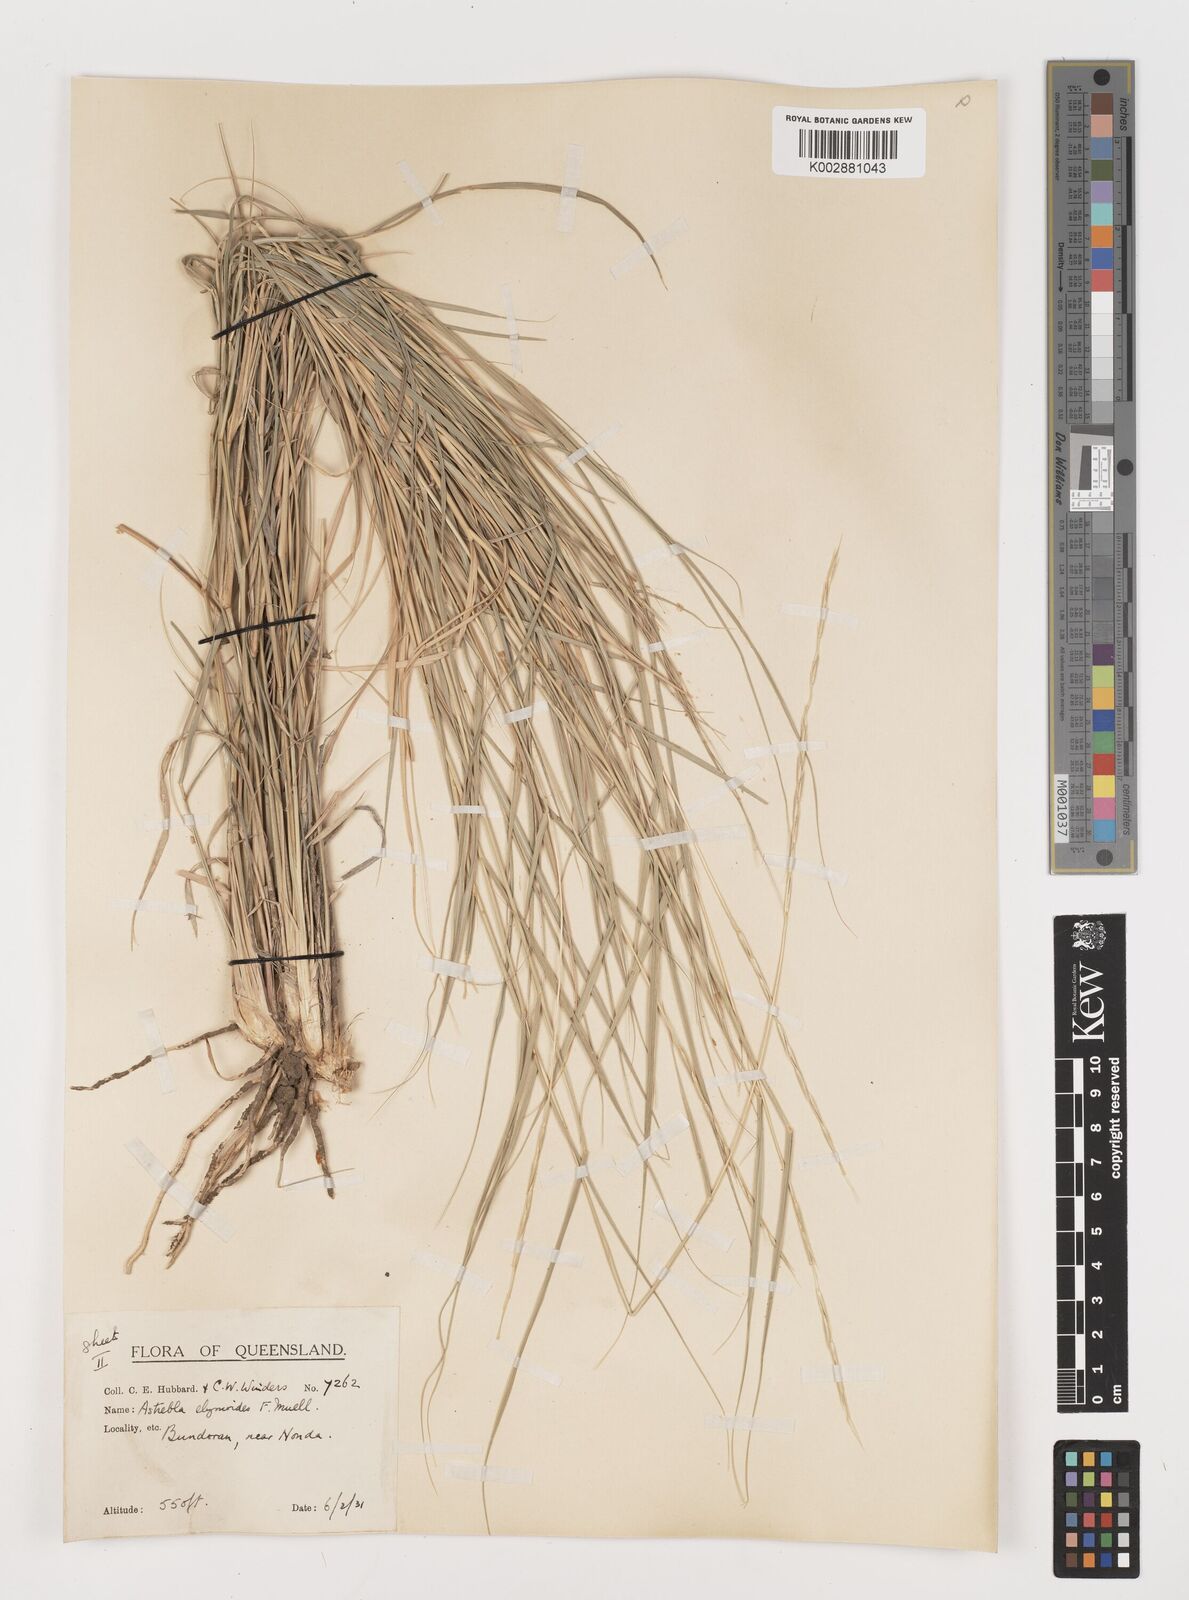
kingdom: Plantae
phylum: Tracheophyta
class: Liliopsida
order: Poales
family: Poaceae
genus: Astrebla
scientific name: Astrebla elymoides
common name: Hoop mitchell grass
